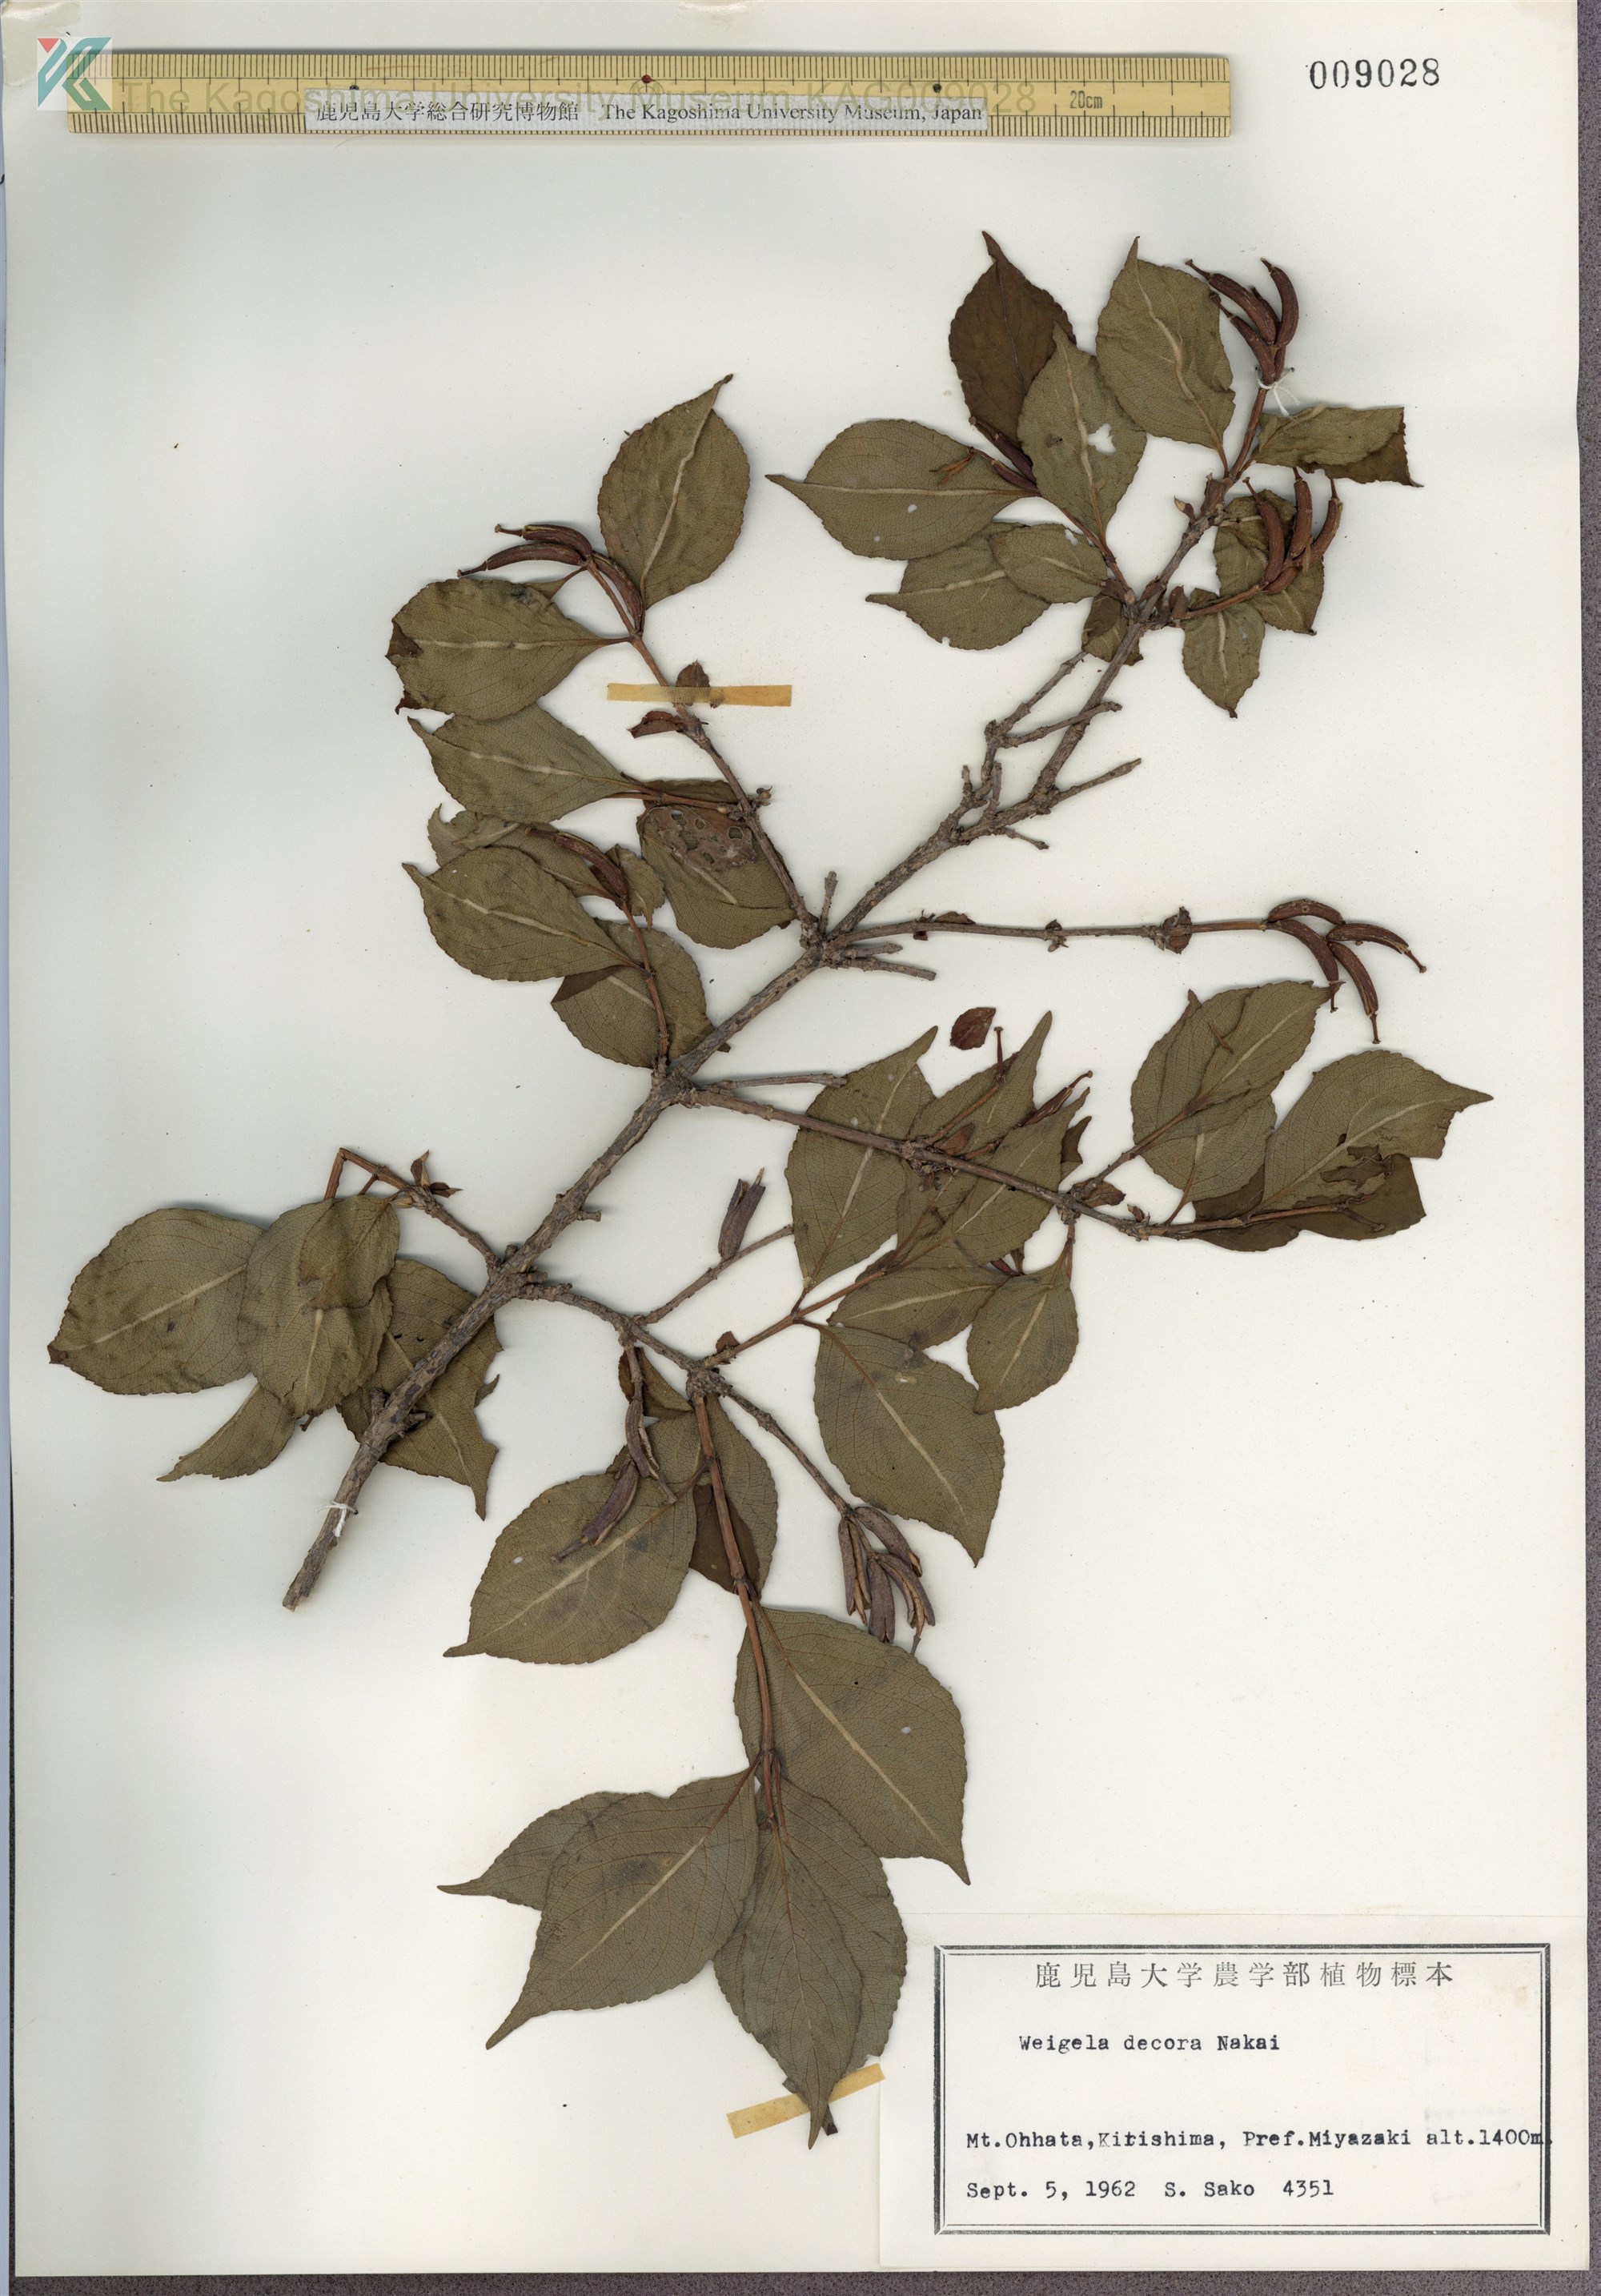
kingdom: Plantae
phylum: Tracheophyta
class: Magnoliopsida
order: Dipsacales
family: Caprifoliaceae
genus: Weigela
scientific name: Weigela decora
